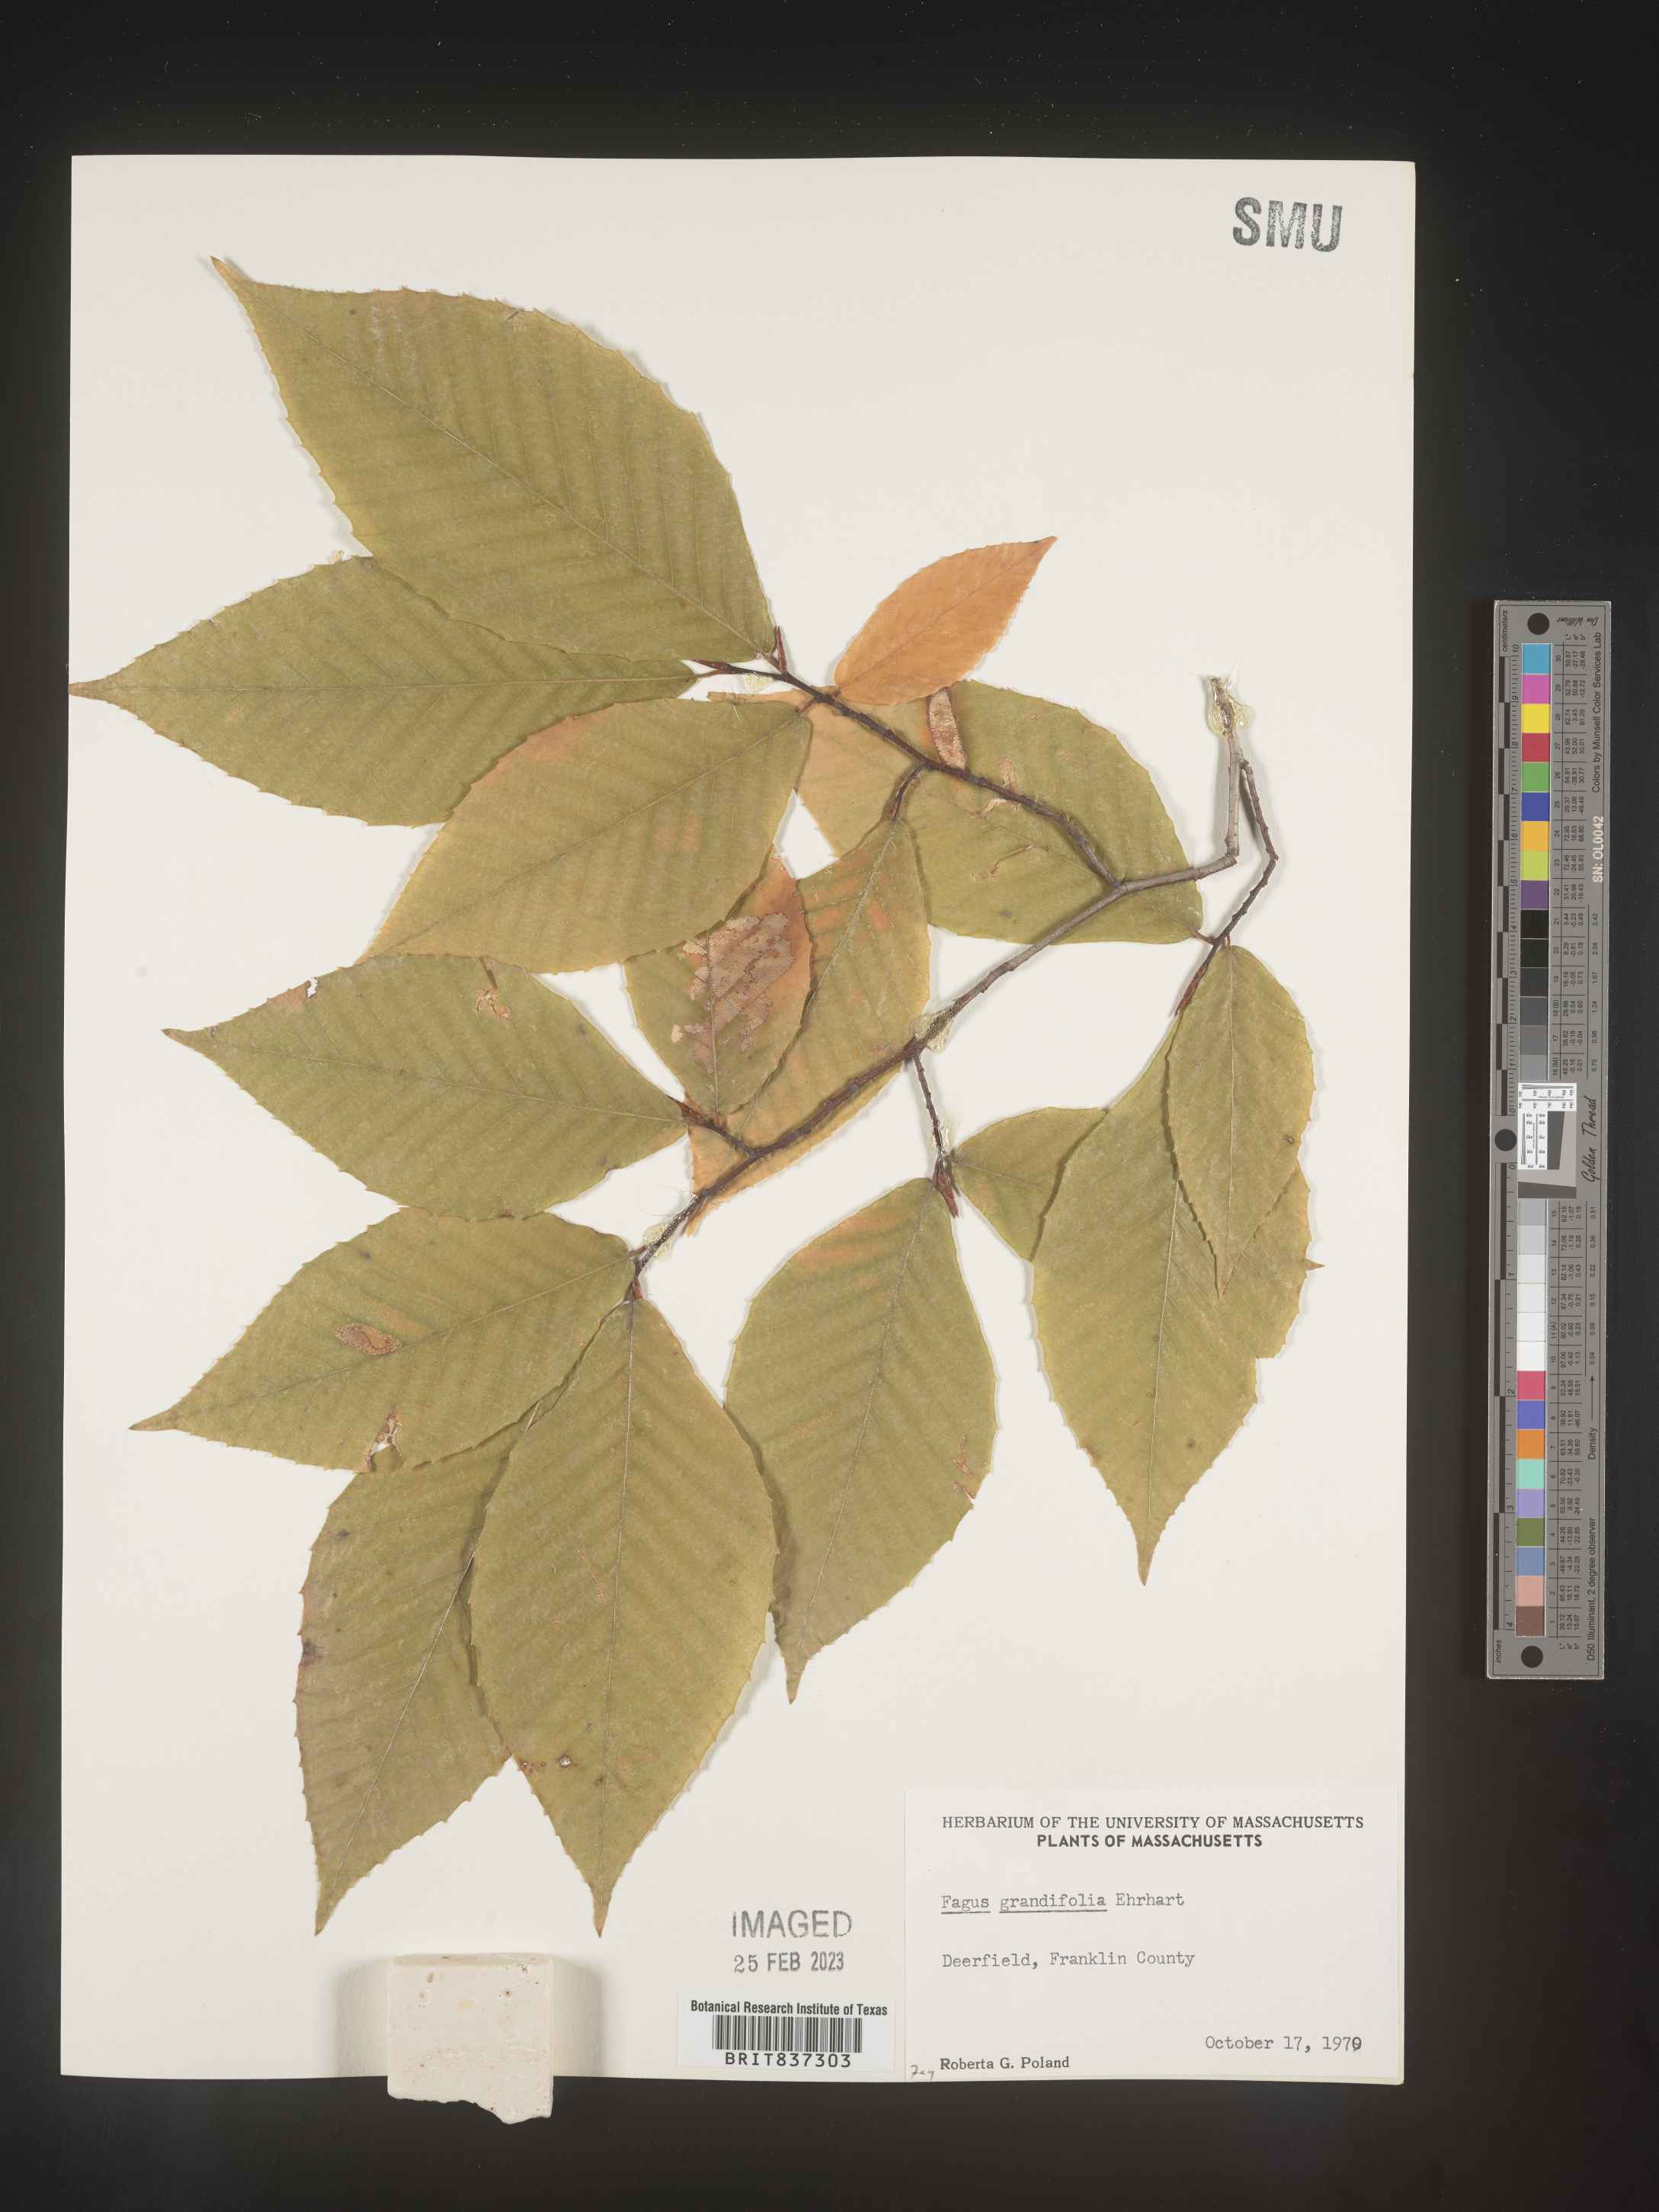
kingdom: Plantae
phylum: Tracheophyta
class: Magnoliopsida
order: Fagales
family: Fagaceae
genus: Fagus
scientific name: Fagus grandifolia
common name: American beech
